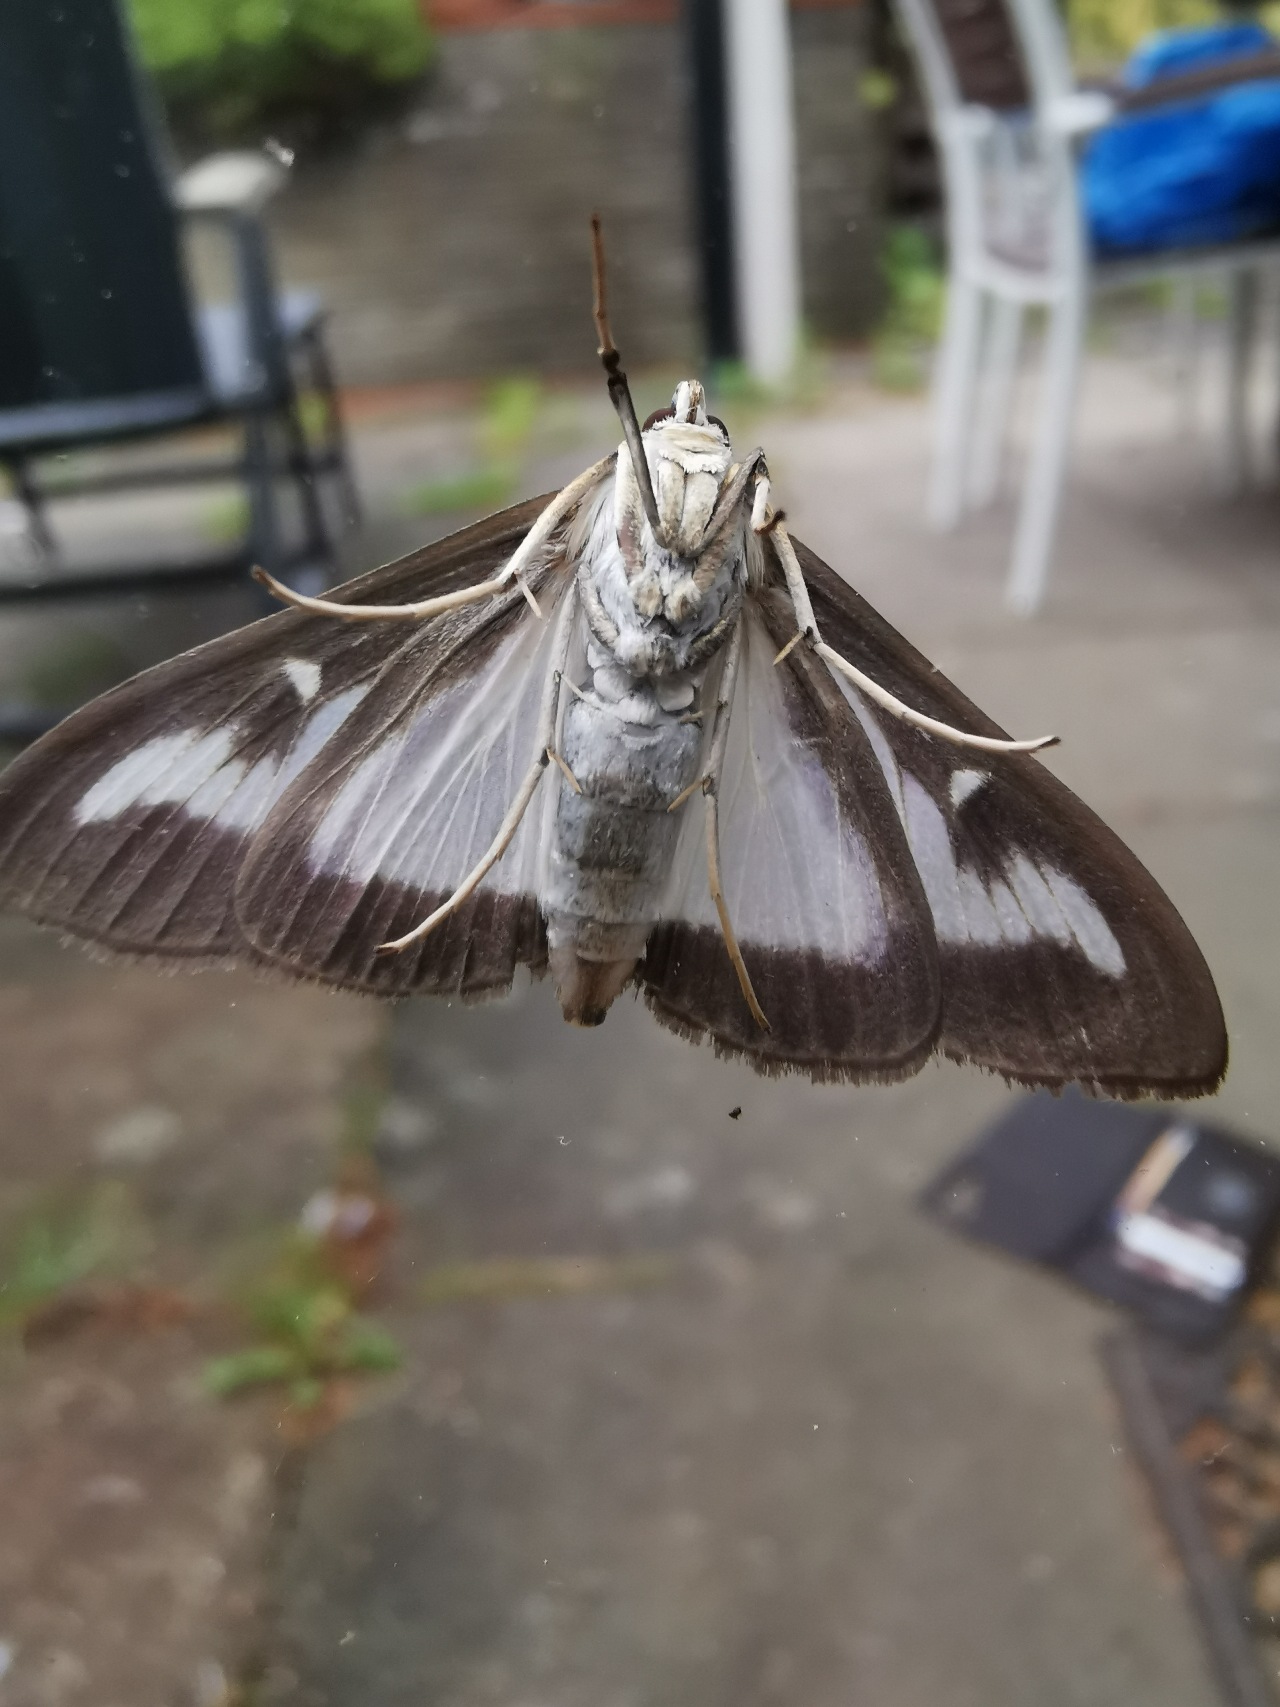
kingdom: Animalia
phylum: Arthropoda
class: Insecta
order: Lepidoptera
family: Crambidae
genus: Cydalima
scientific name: Cydalima perspectalis
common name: Buksbomhalvmøl
